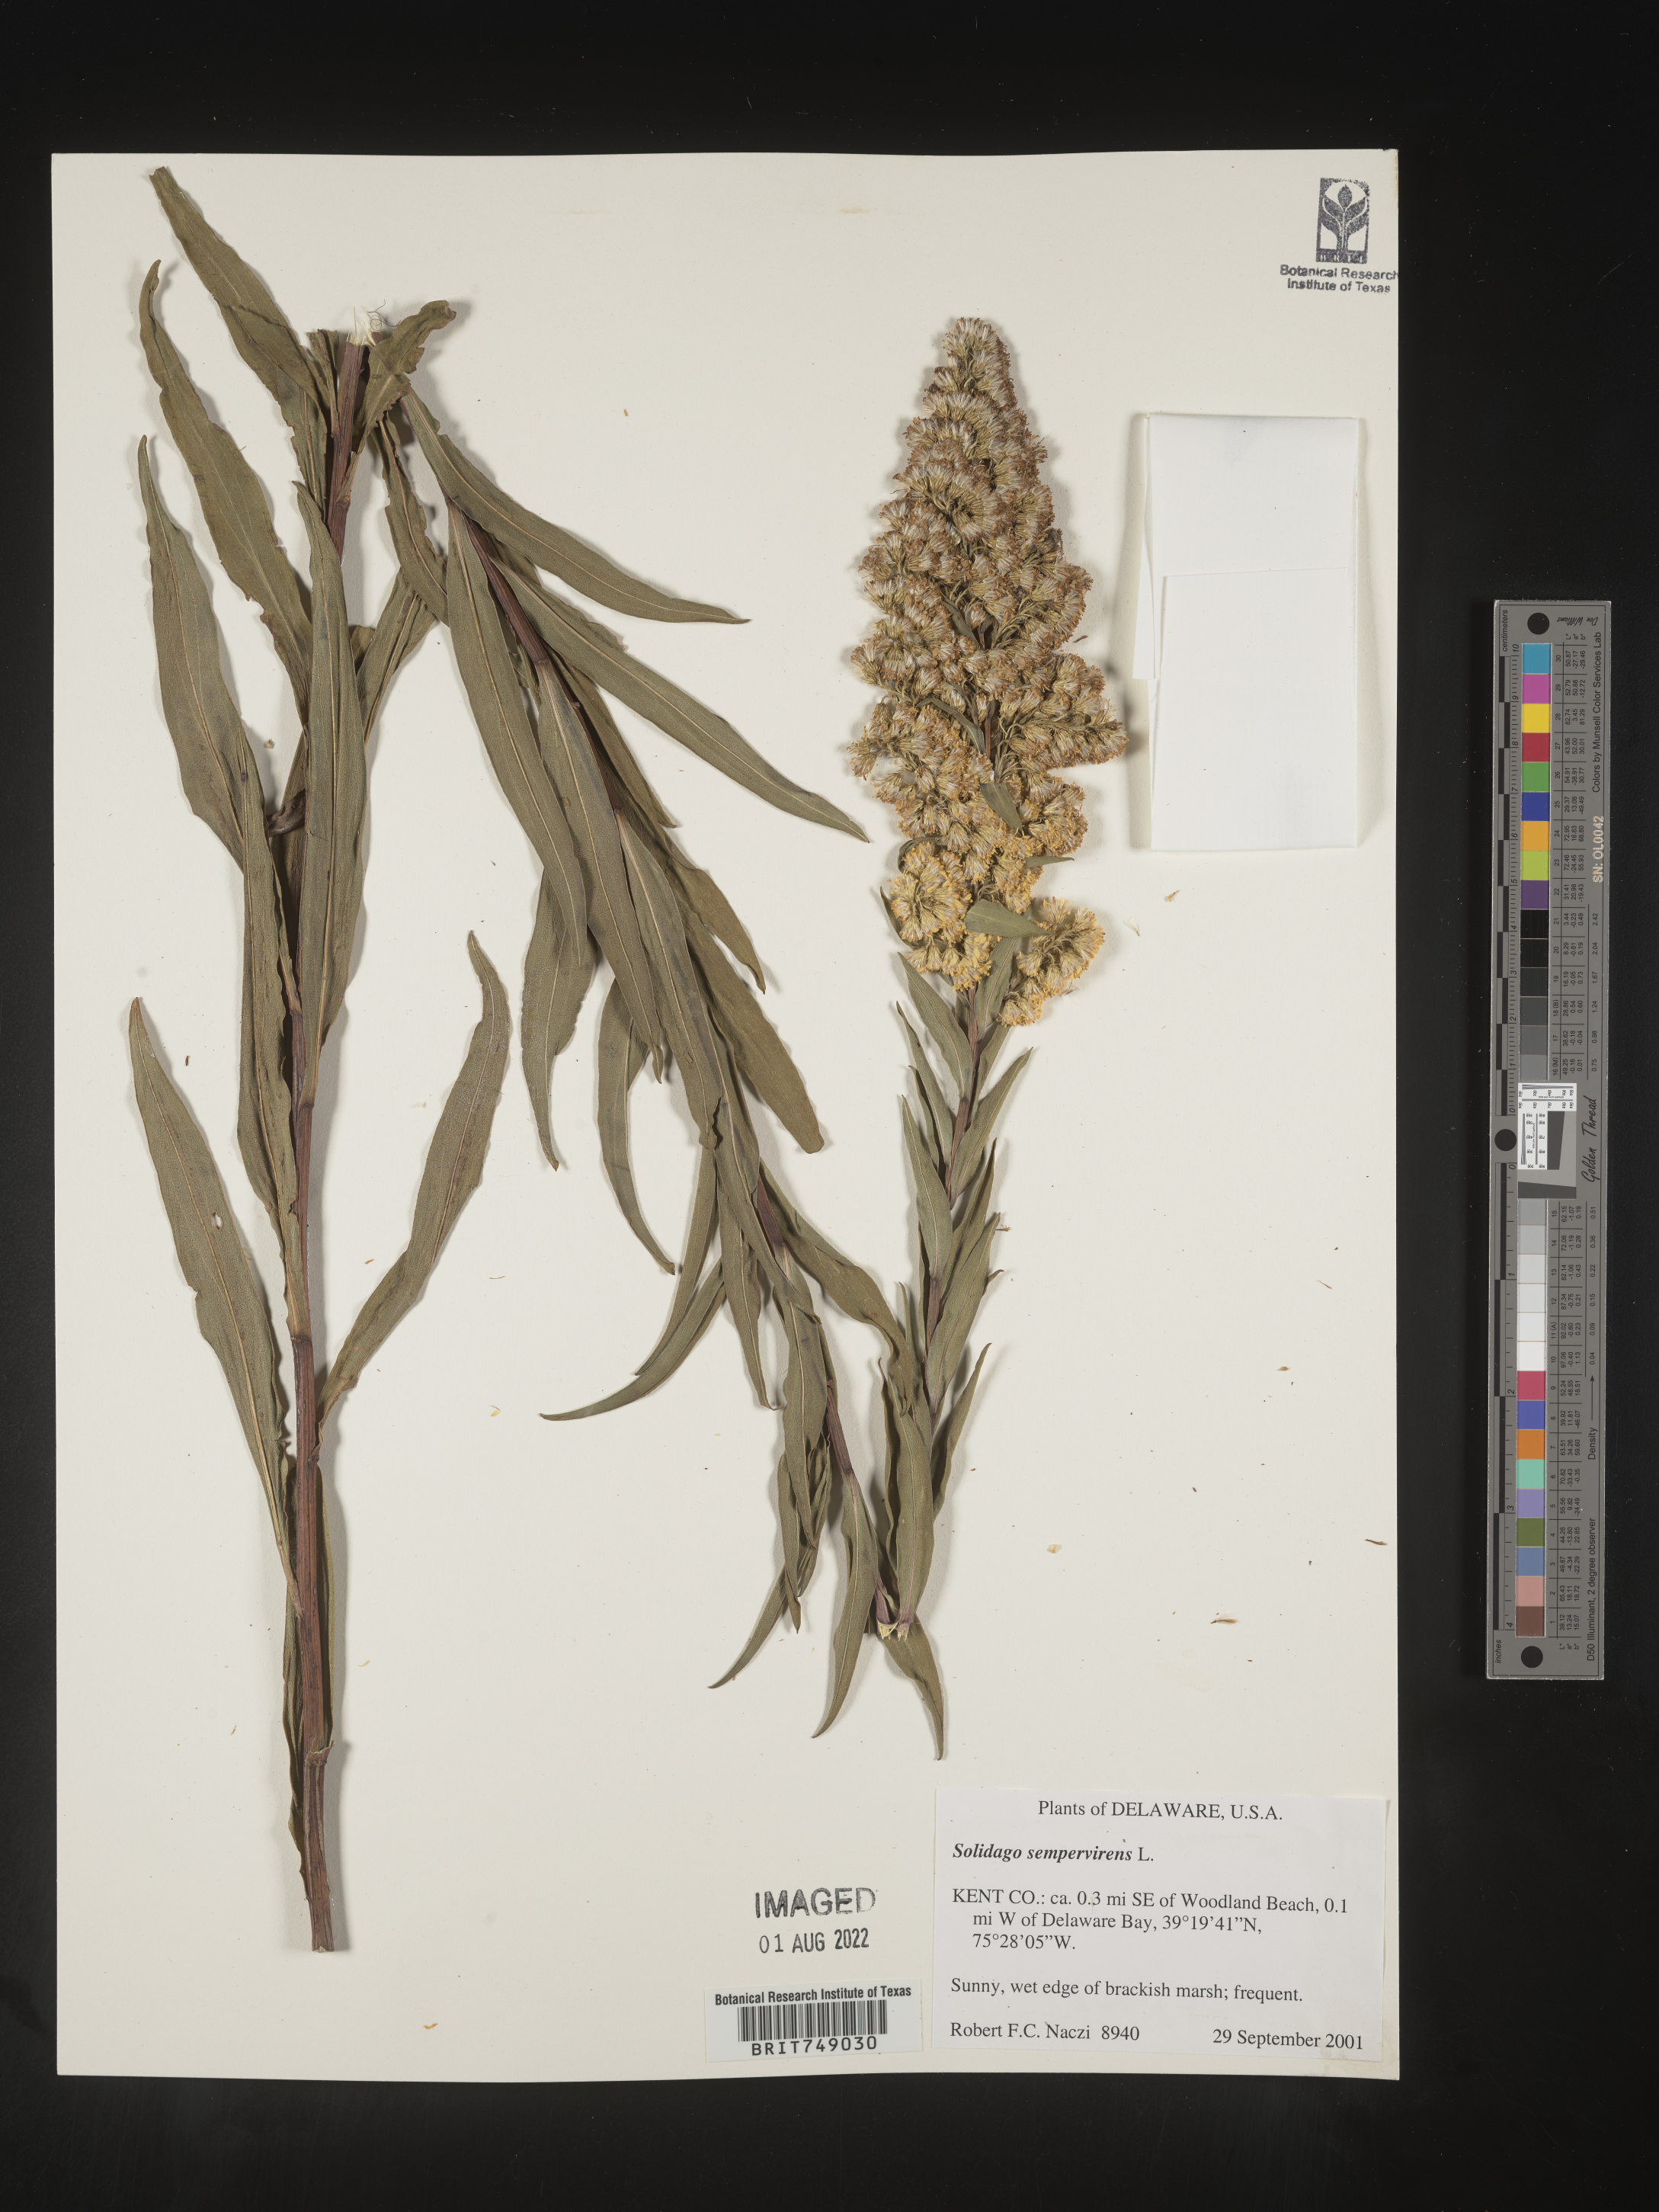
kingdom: Plantae
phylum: Tracheophyta
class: Magnoliopsida
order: Asterales
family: Asteraceae
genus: Solidago
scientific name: Solidago sempervirens
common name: Salt-marsh goldenrod
